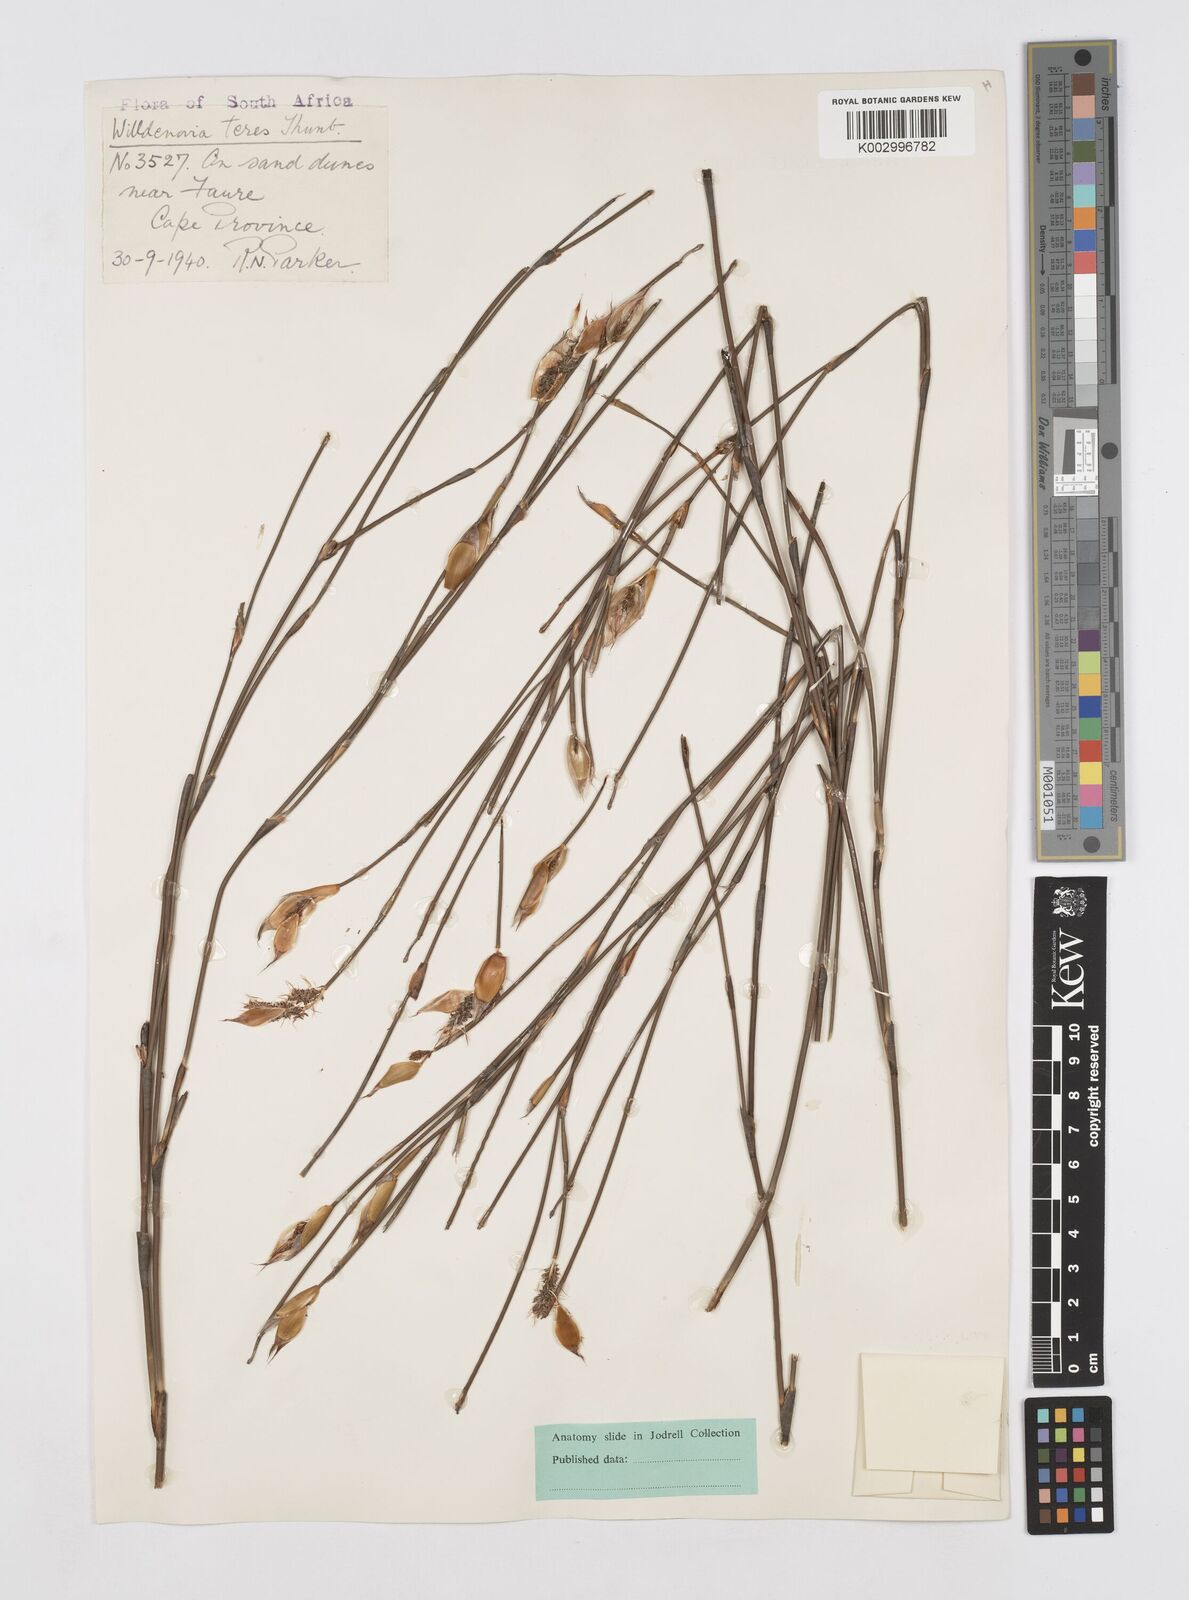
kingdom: Plantae
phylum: Tracheophyta
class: Liliopsida
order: Poales
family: Restionaceae
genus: Willdenowia
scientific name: Willdenowia teres
